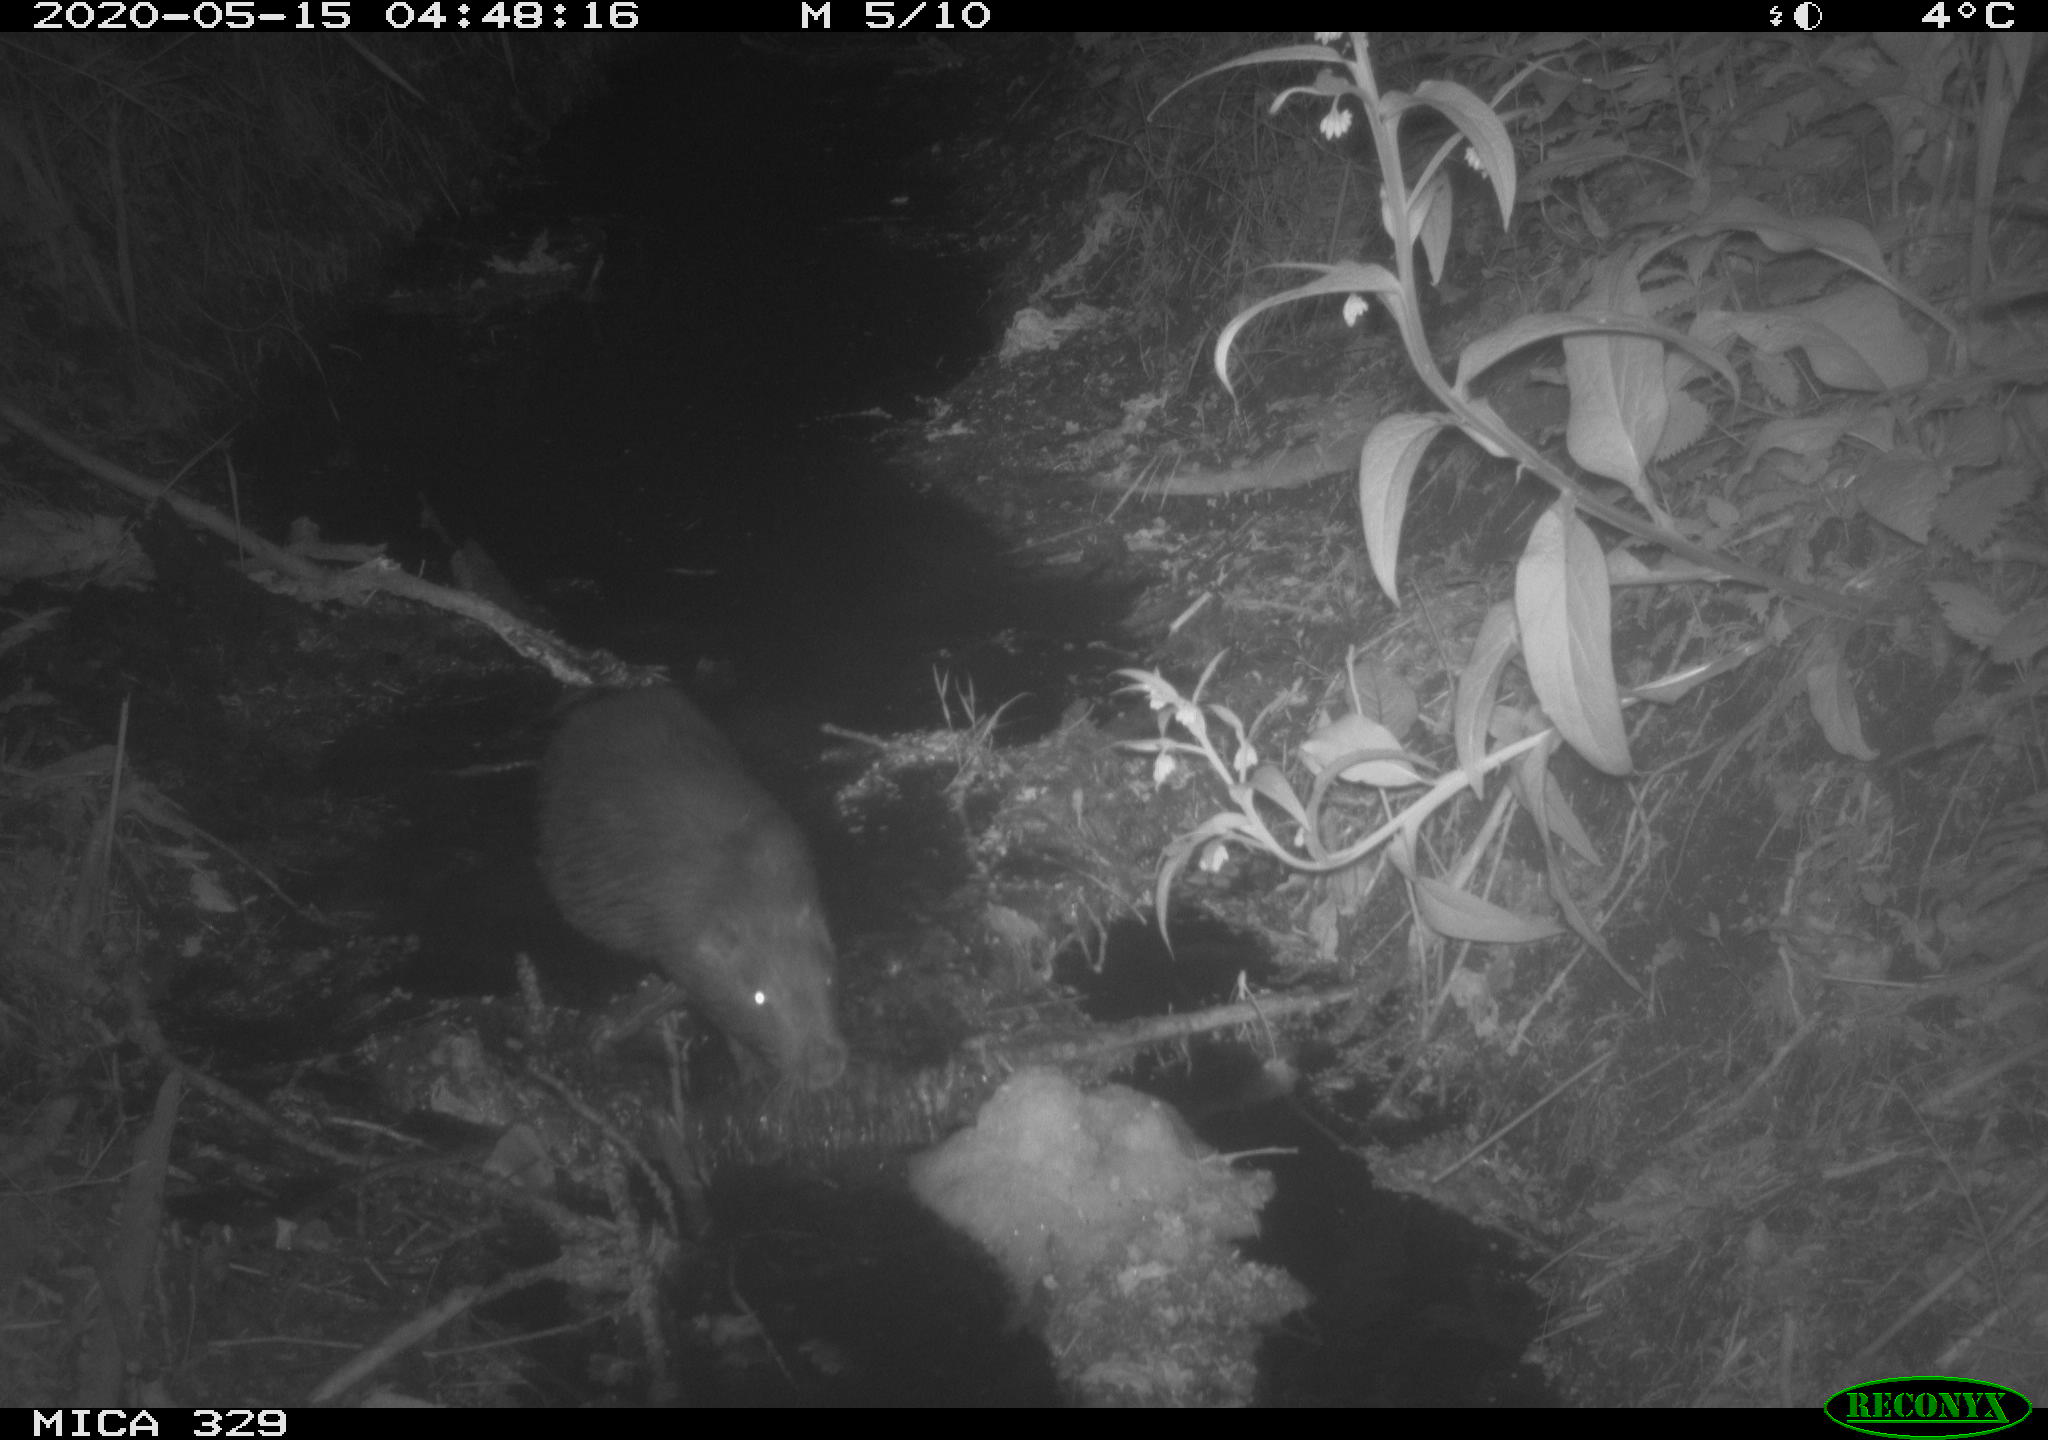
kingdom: Animalia
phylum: Chordata
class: Mammalia
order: Rodentia
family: Myocastoridae
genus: Myocastor
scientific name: Myocastor coypus
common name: Coypu
